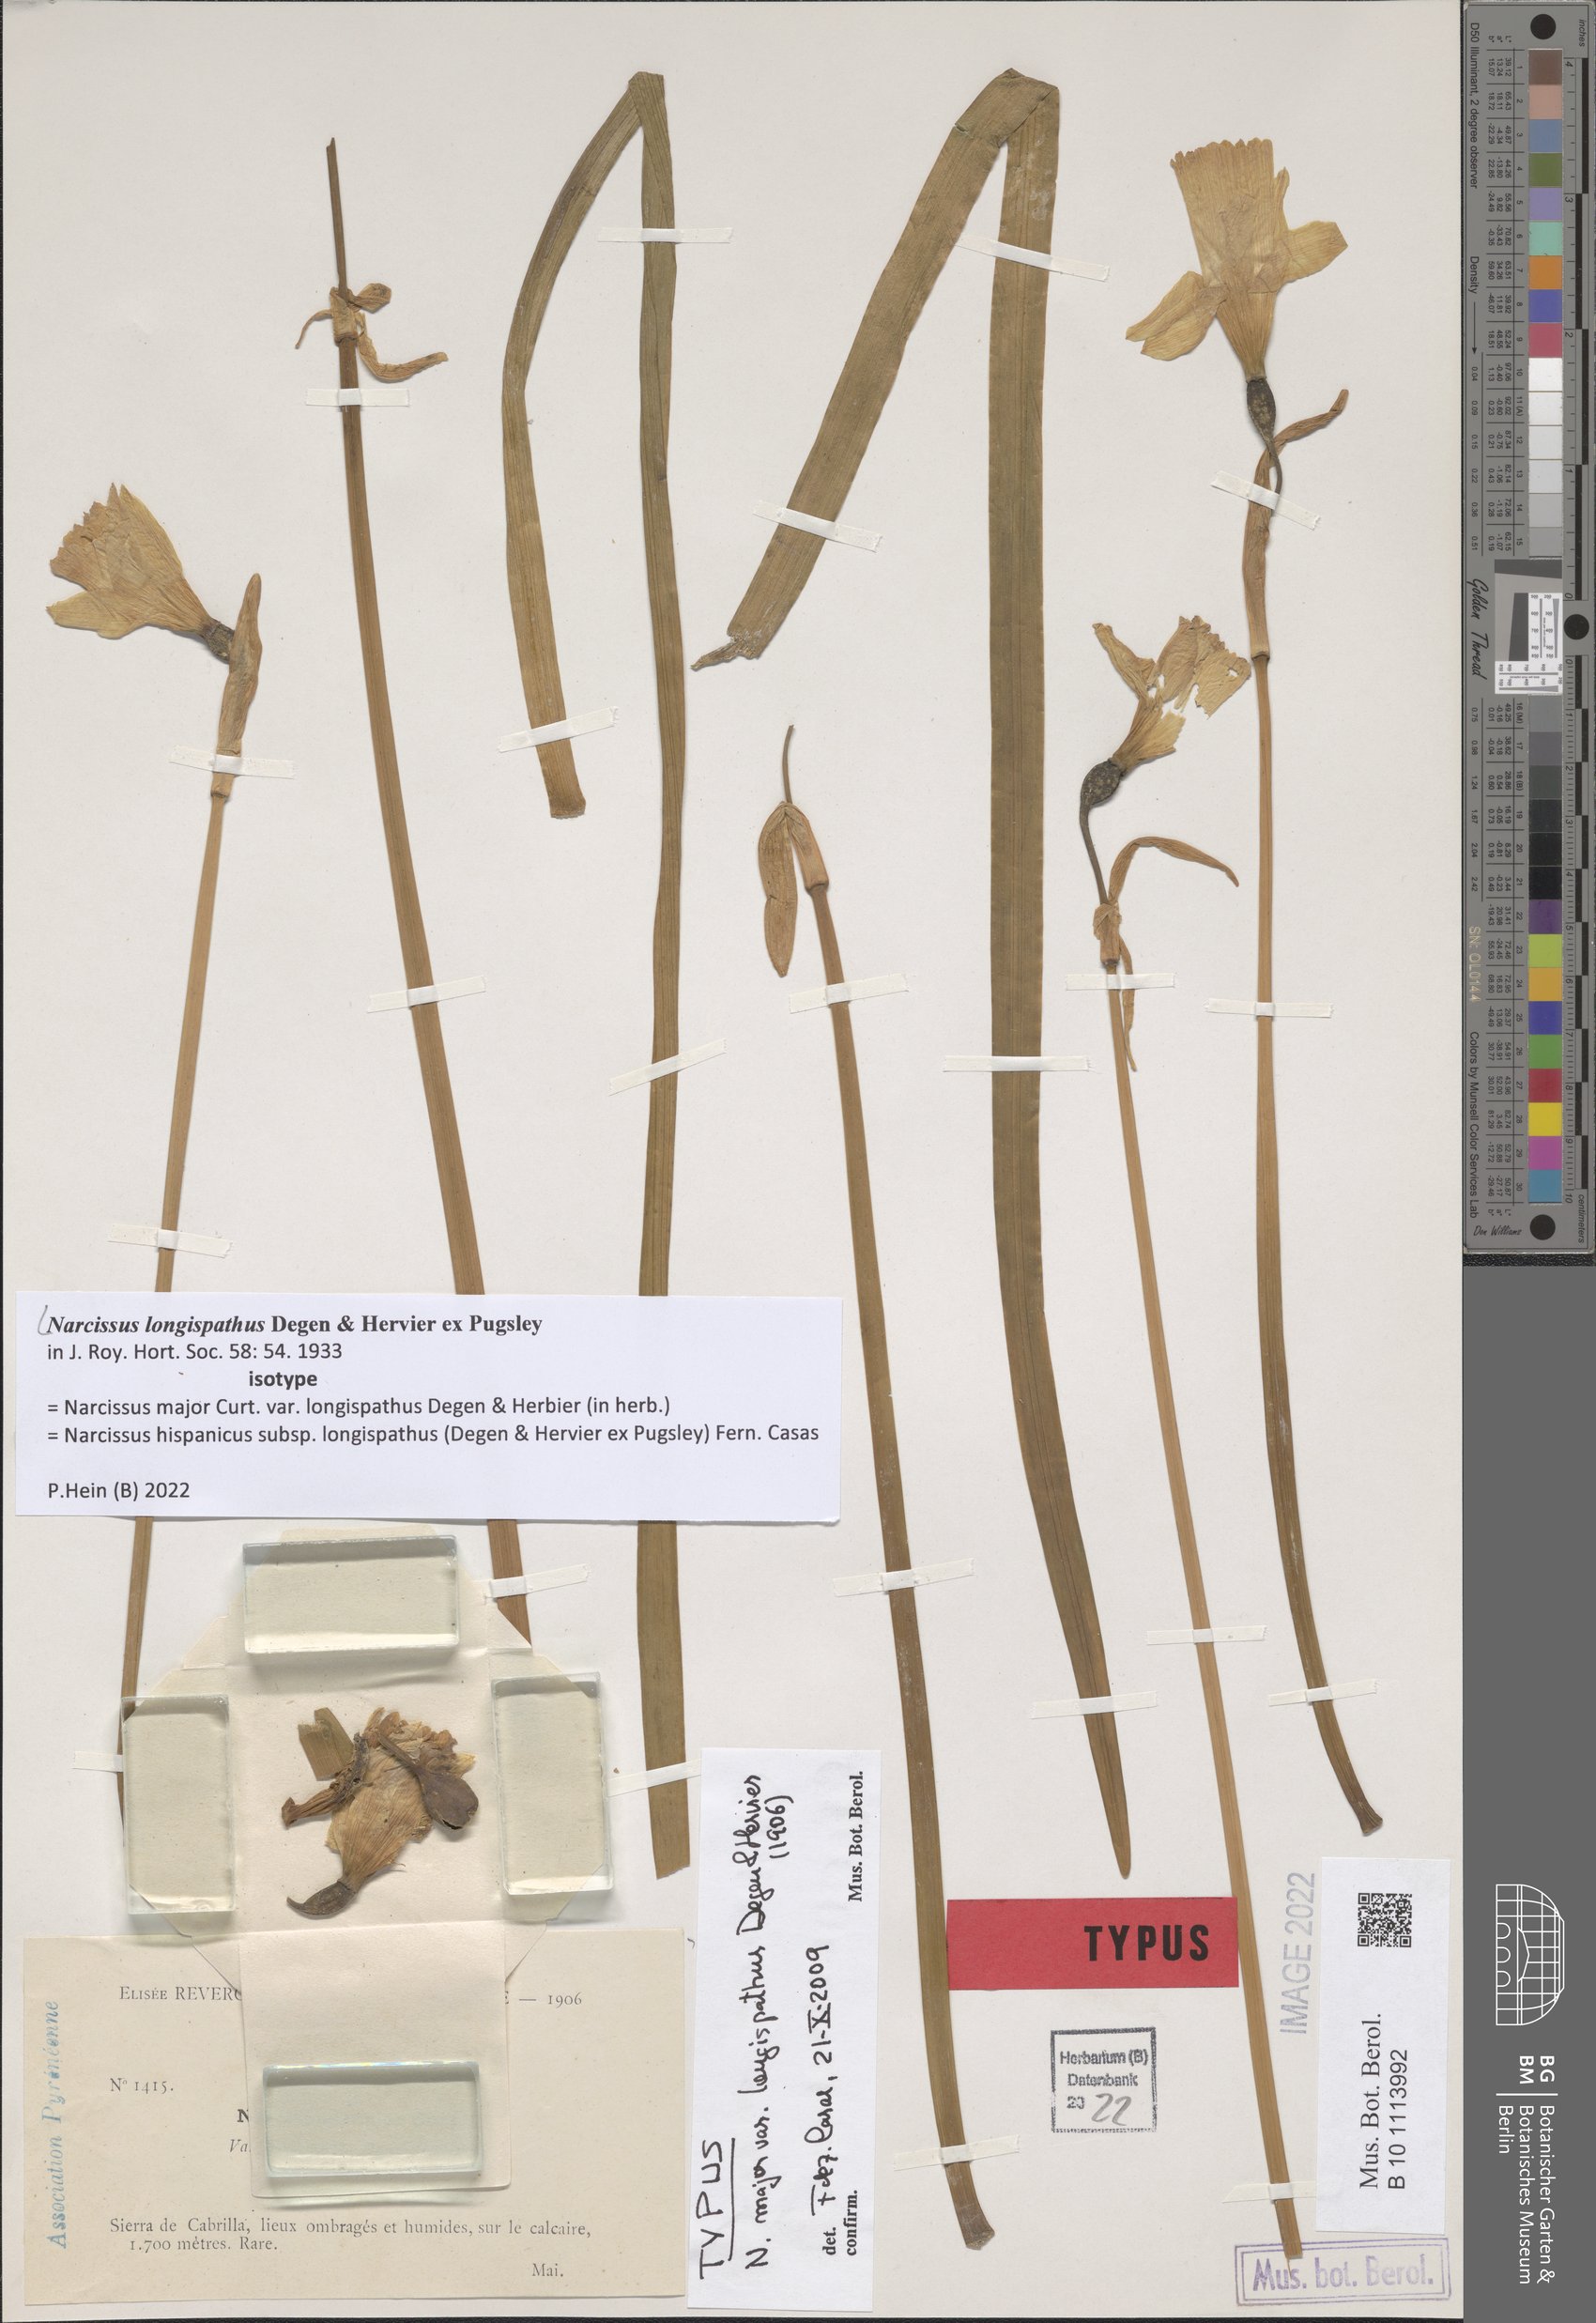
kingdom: Plantae
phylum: Tracheophyta
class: Liliopsida
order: Asparagales
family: Amaryllidaceae
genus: Narcissus
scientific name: Narcissus nevadensis
